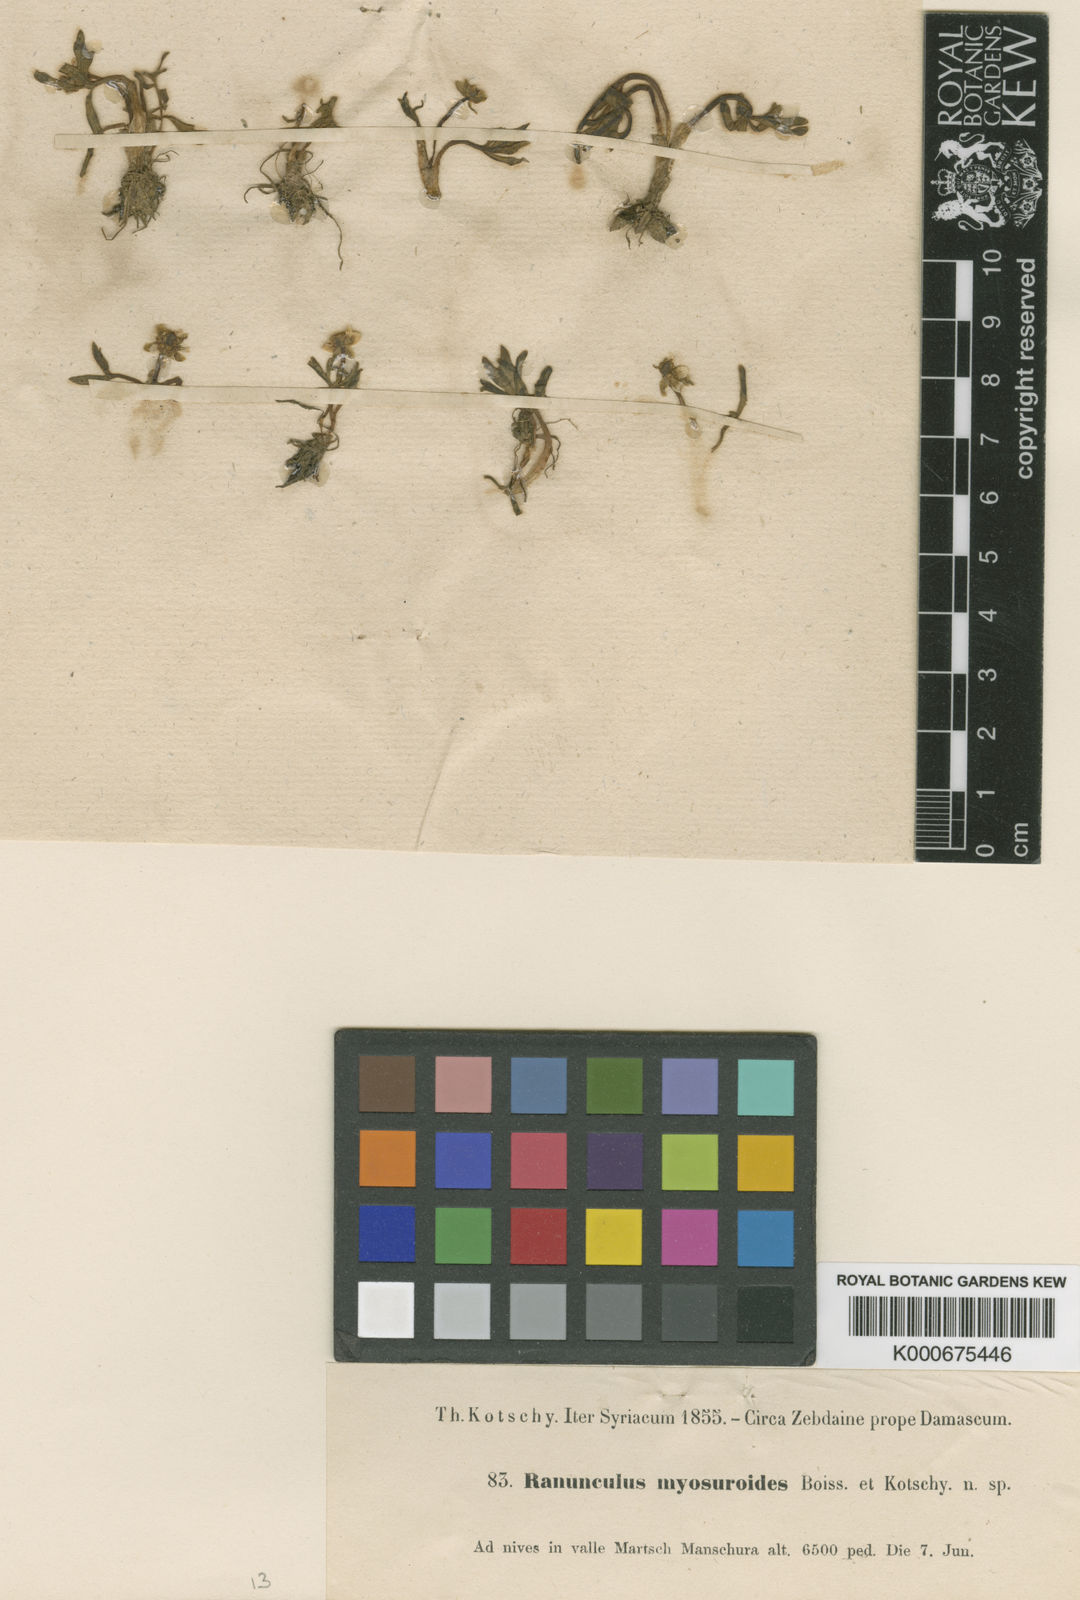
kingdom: Plantae
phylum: Tracheophyta
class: Magnoliopsida
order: Ranunculales
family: Ranunculaceae
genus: Ranunculus
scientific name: Ranunculus myosuroides
